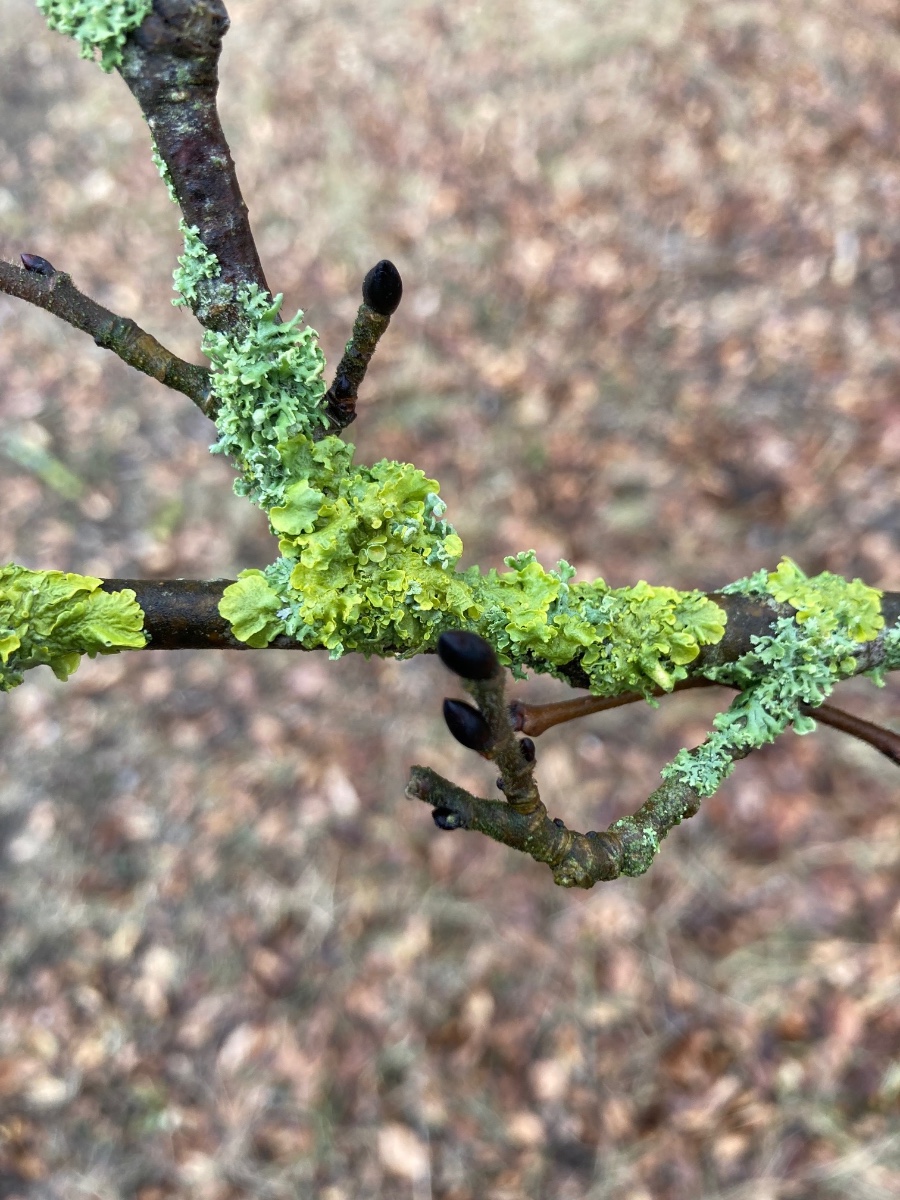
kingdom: Fungi
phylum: Ascomycota
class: Lecanoromycetes
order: Teloschistales
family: Teloschistaceae
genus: Xanthoria
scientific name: Xanthoria parietina
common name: almindelig væggelav
